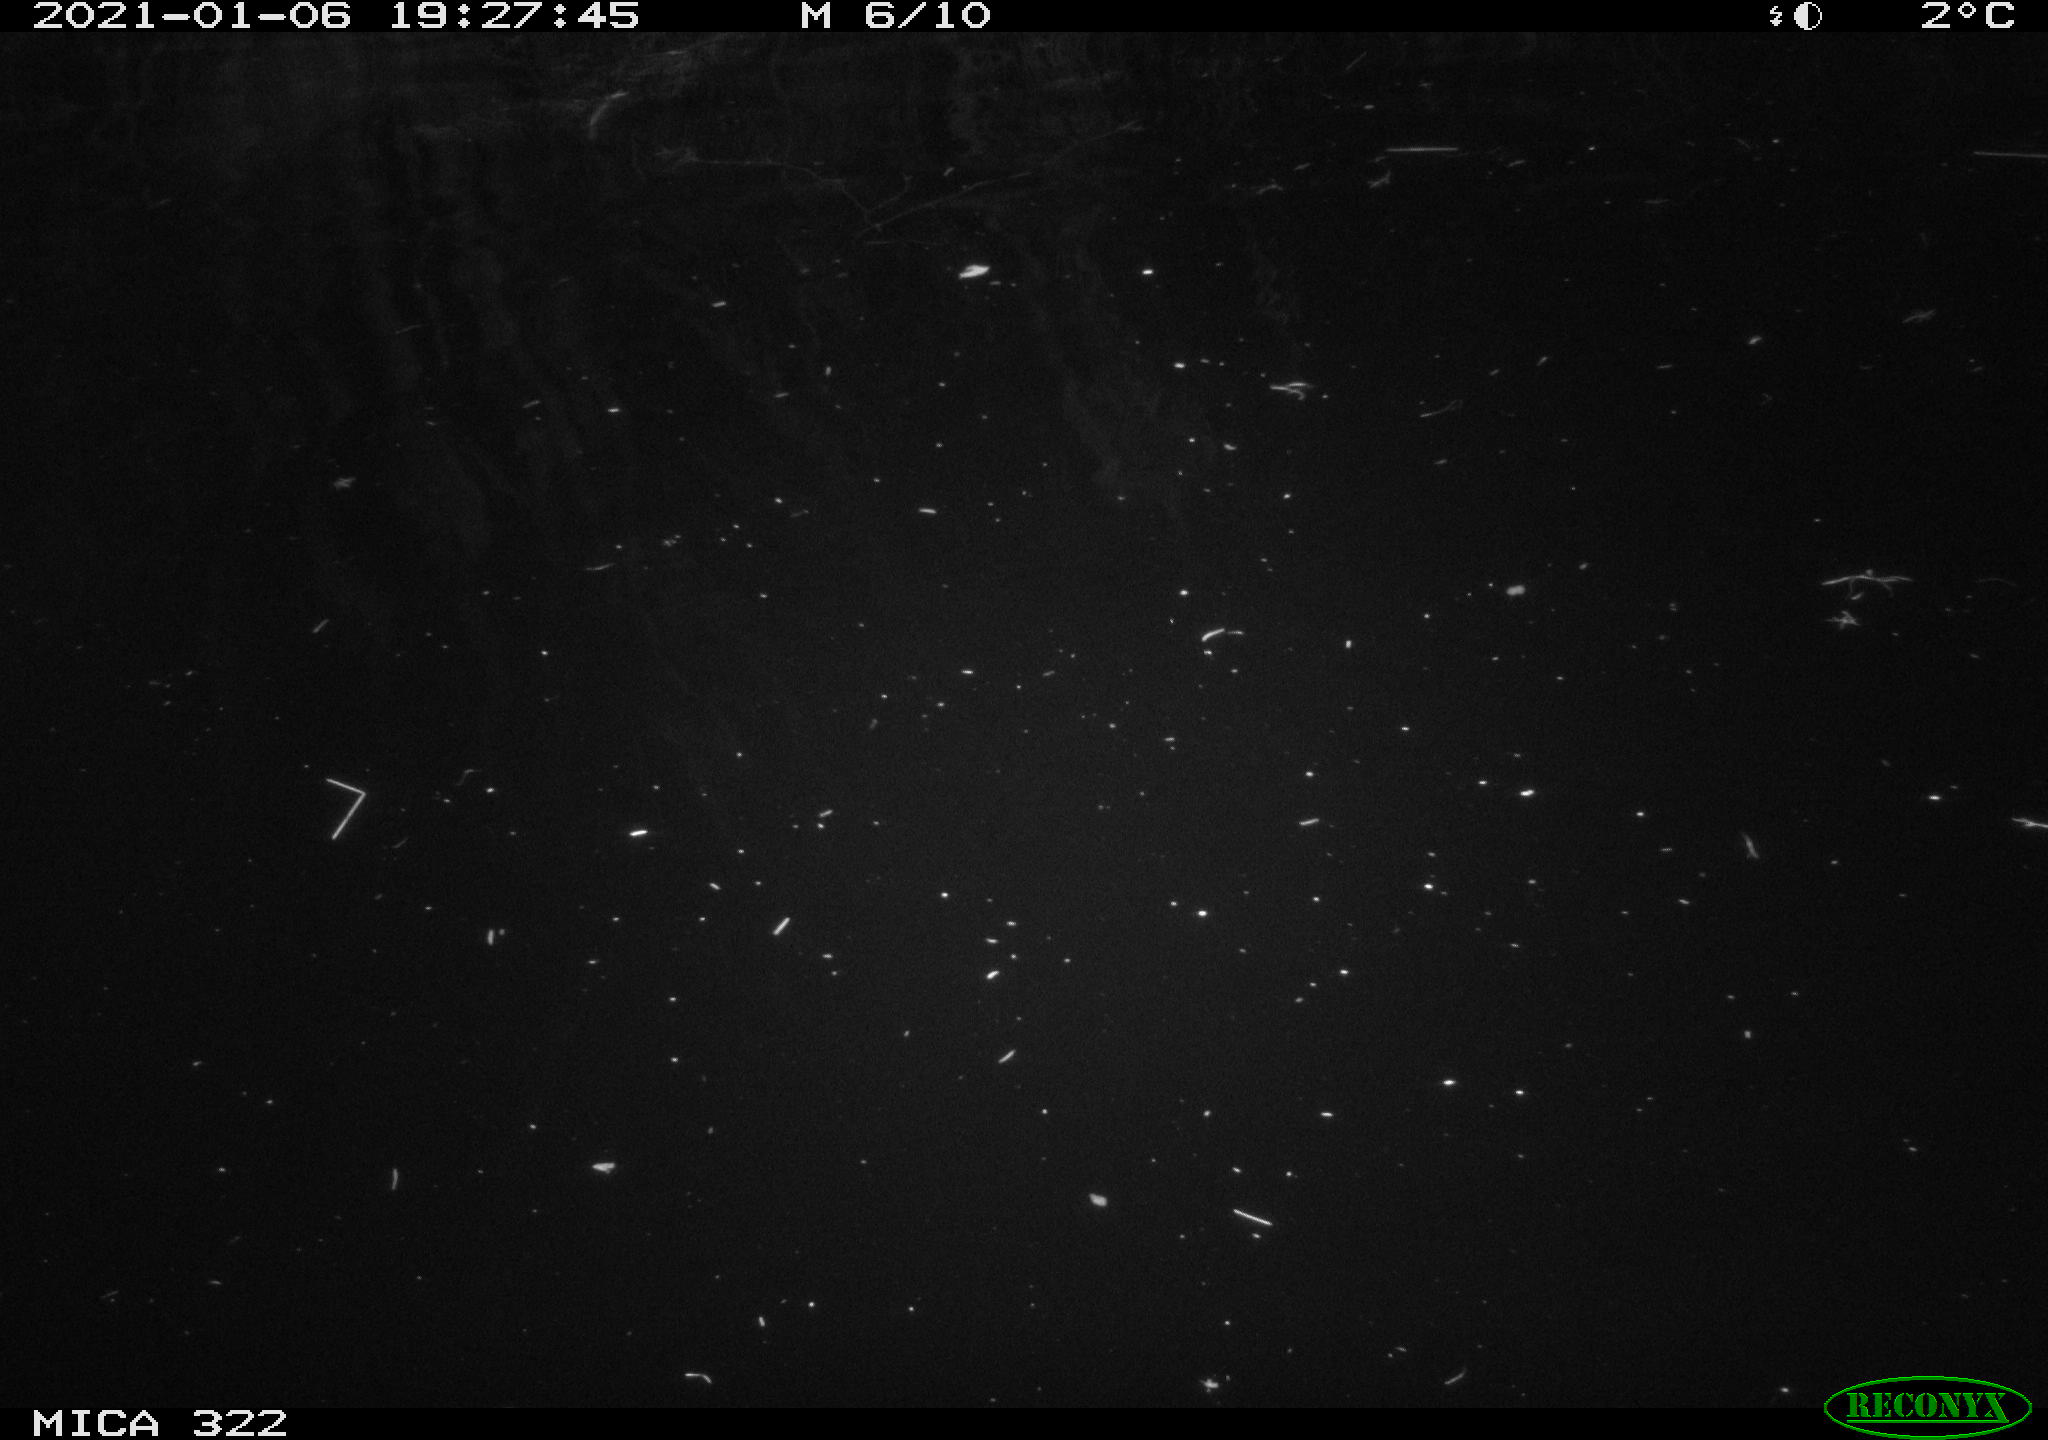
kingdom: Animalia
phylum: Chordata
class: Aves
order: Anseriformes
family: Anatidae
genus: Mareca
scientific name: Mareca strepera
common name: Gadwall
